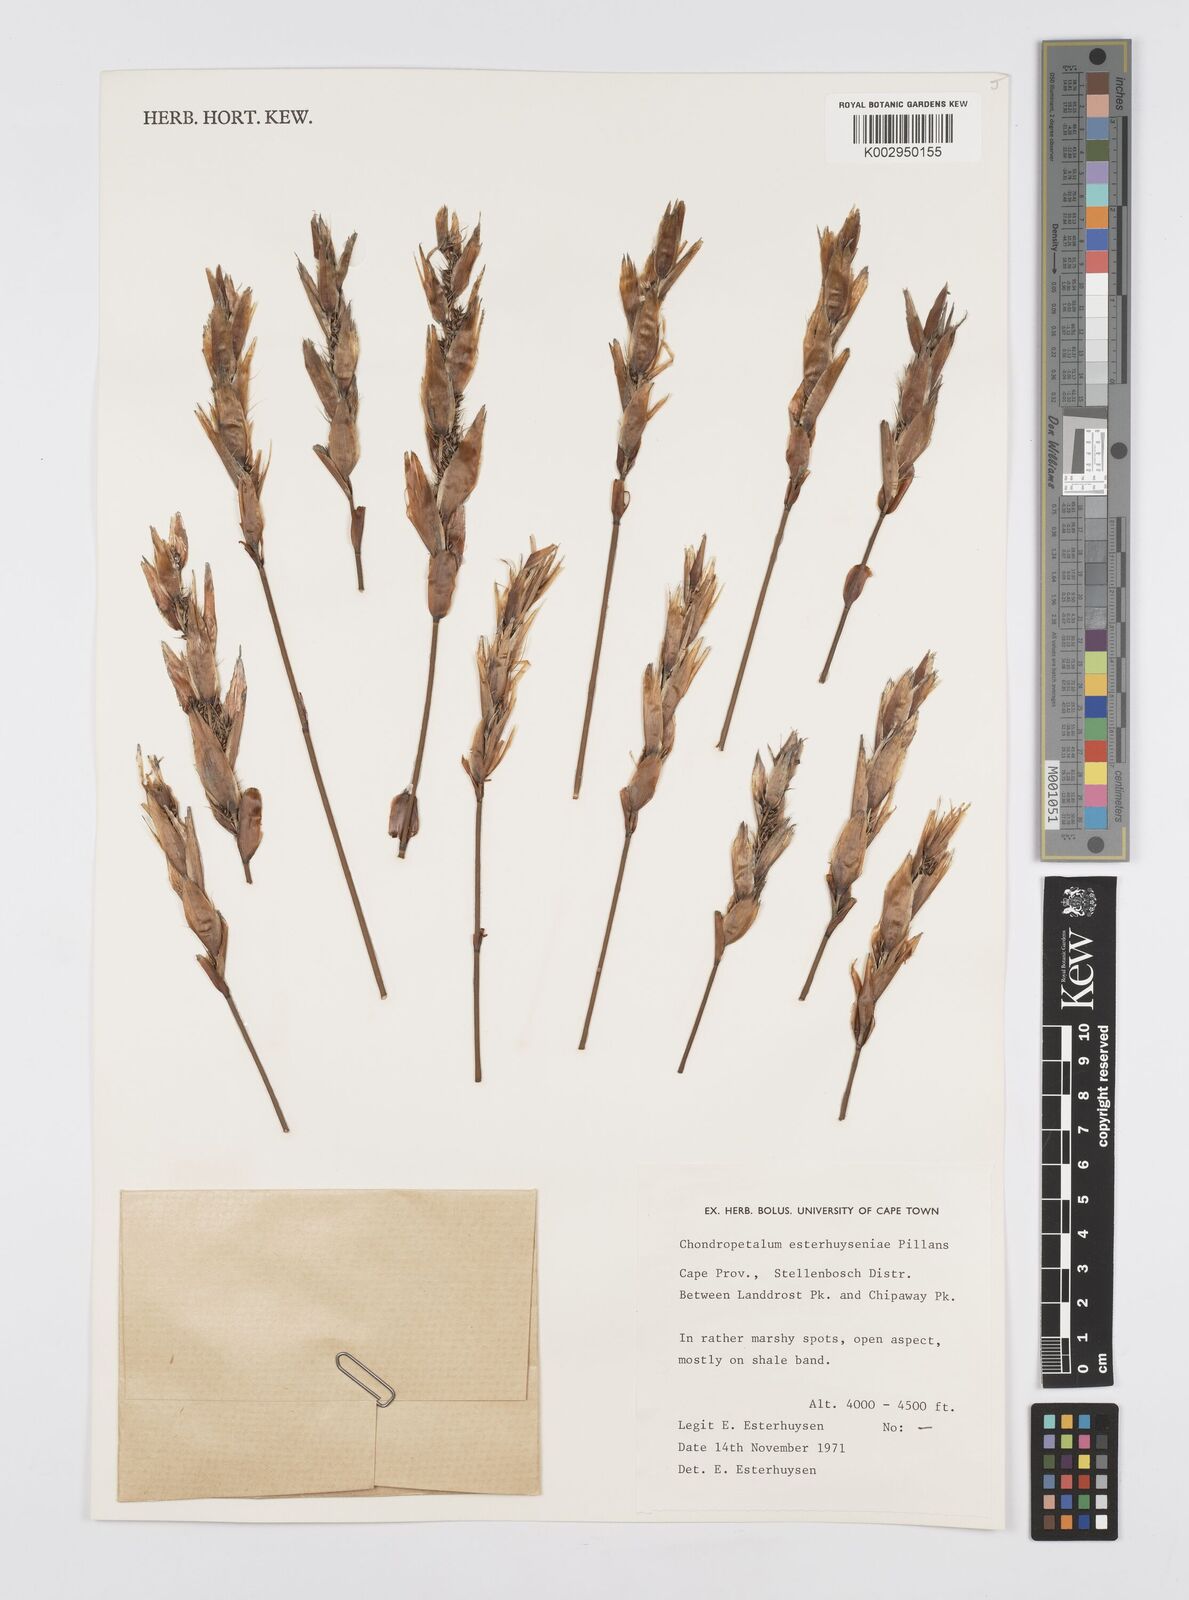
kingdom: Plantae
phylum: Tracheophyta
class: Liliopsida
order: Poales
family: Restionaceae
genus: Askidiosperma
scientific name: Askidiosperma esterhuyseniae
